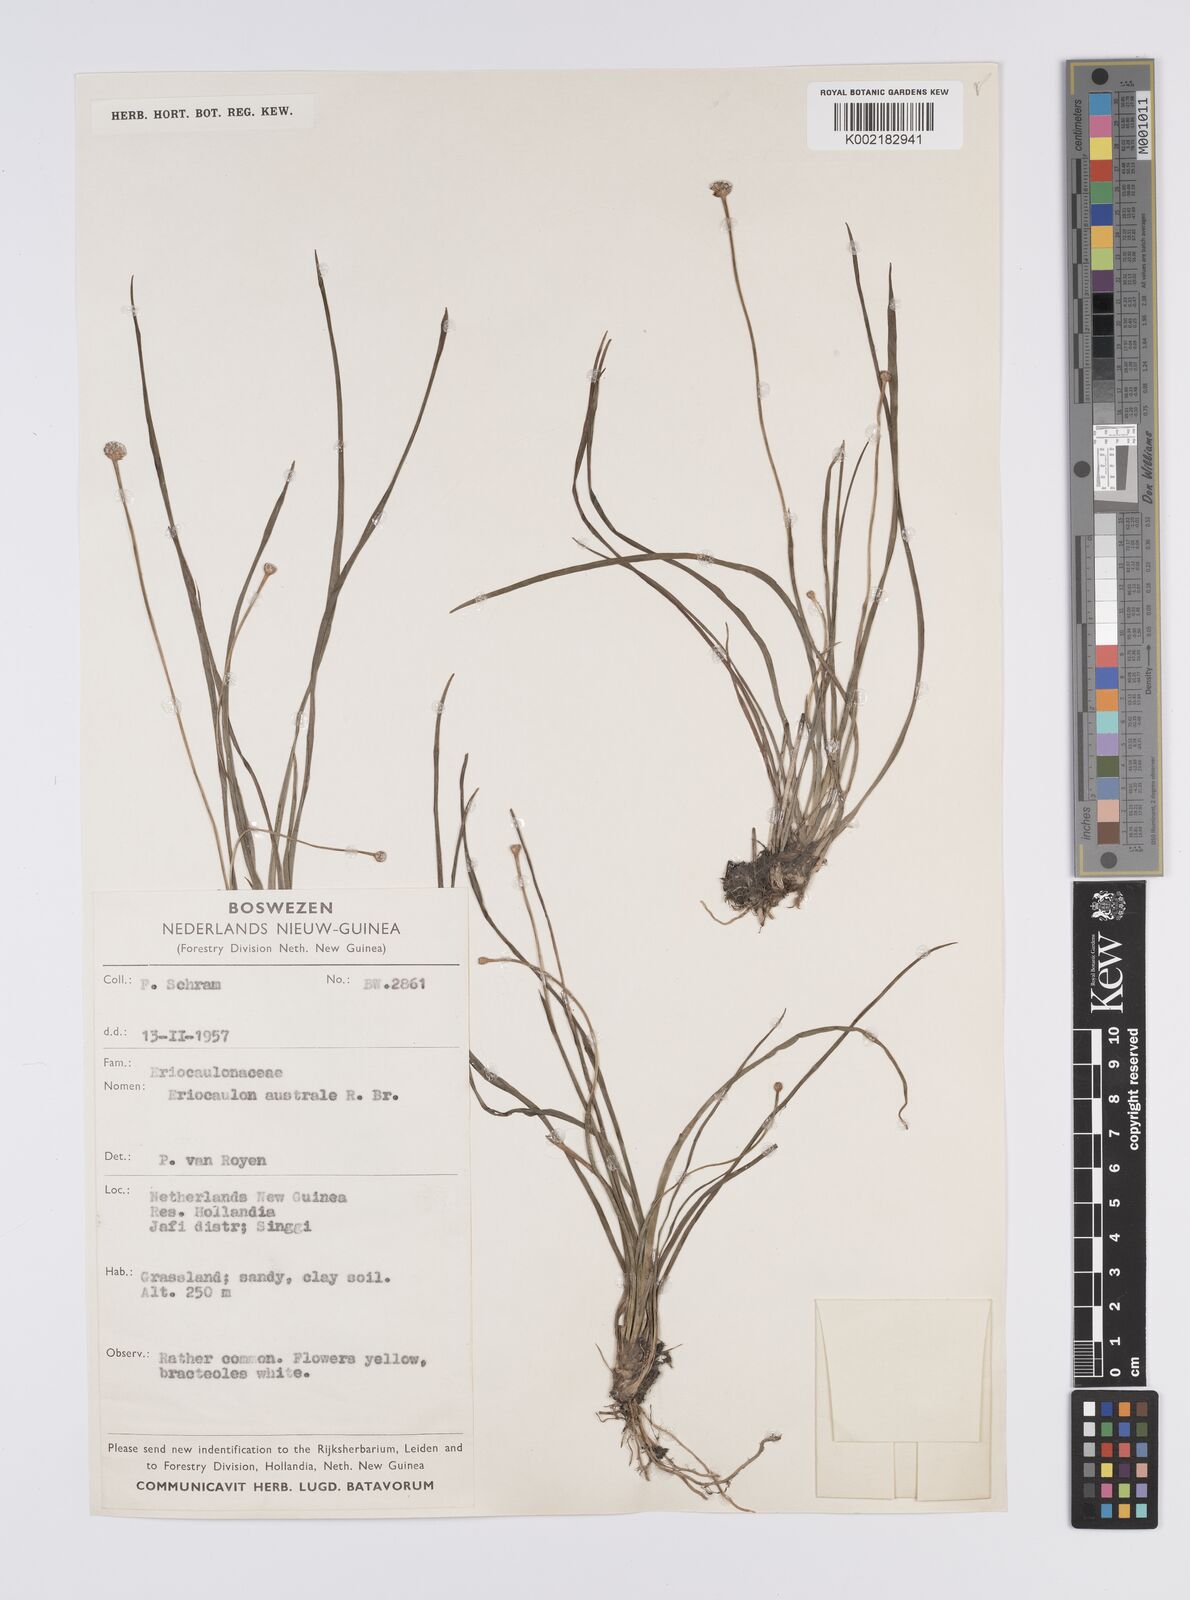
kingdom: Plantae
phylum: Tracheophyta
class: Liliopsida
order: Poales
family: Eriocaulaceae
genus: Eriocaulon
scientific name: Eriocaulon australe
